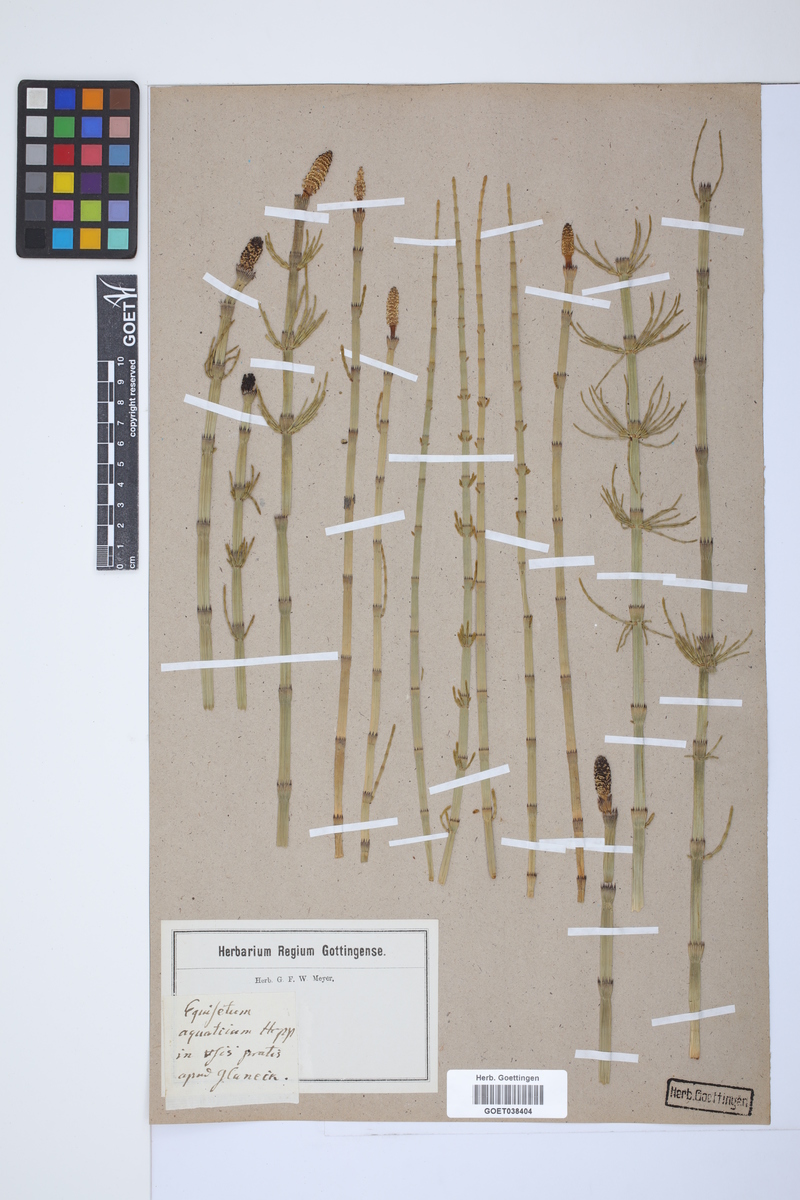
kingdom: Plantae
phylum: Tracheophyta
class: Polypodiopsida
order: Equisetales
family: Equisetaceae
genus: Equisetum
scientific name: Equisetum fluviatile
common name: Water horsetail
